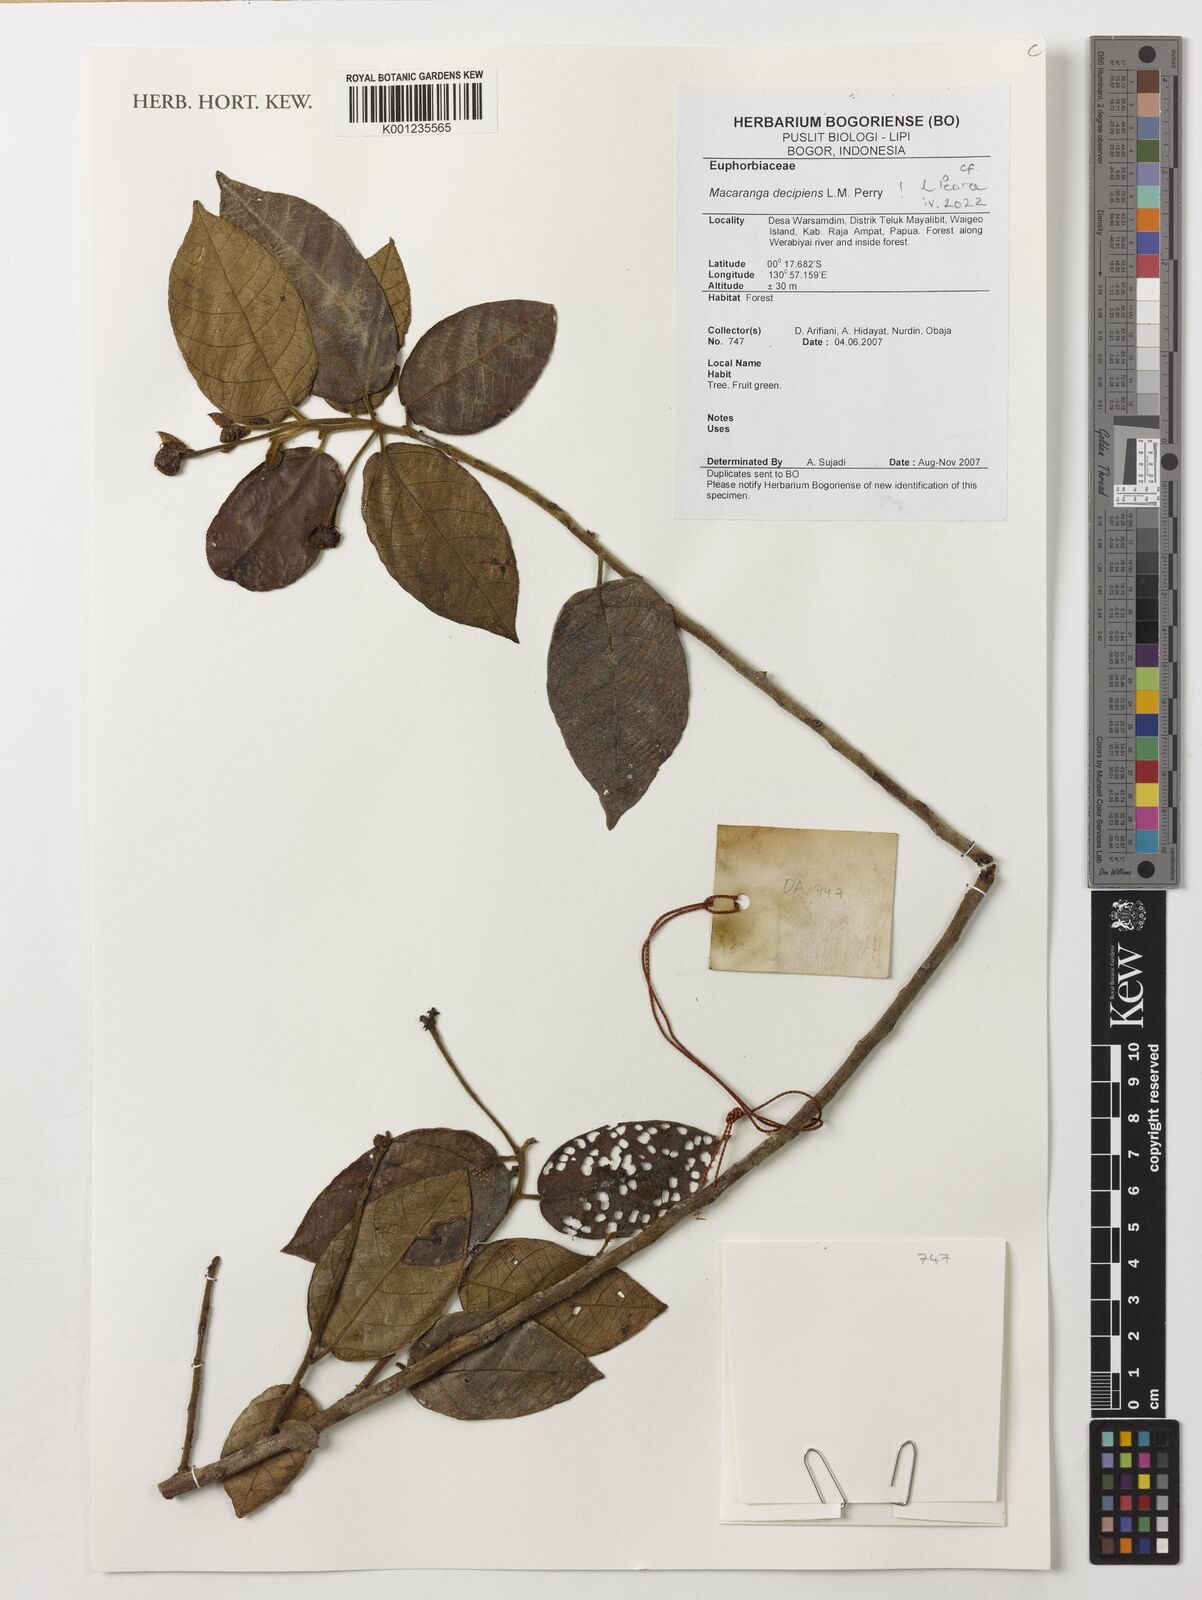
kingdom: Plantae
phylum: Tracheophyta
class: Magnoliopsida
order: Malpighiales
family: Euphorbiaceae
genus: Macaranga
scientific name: Macaranga decipiens
